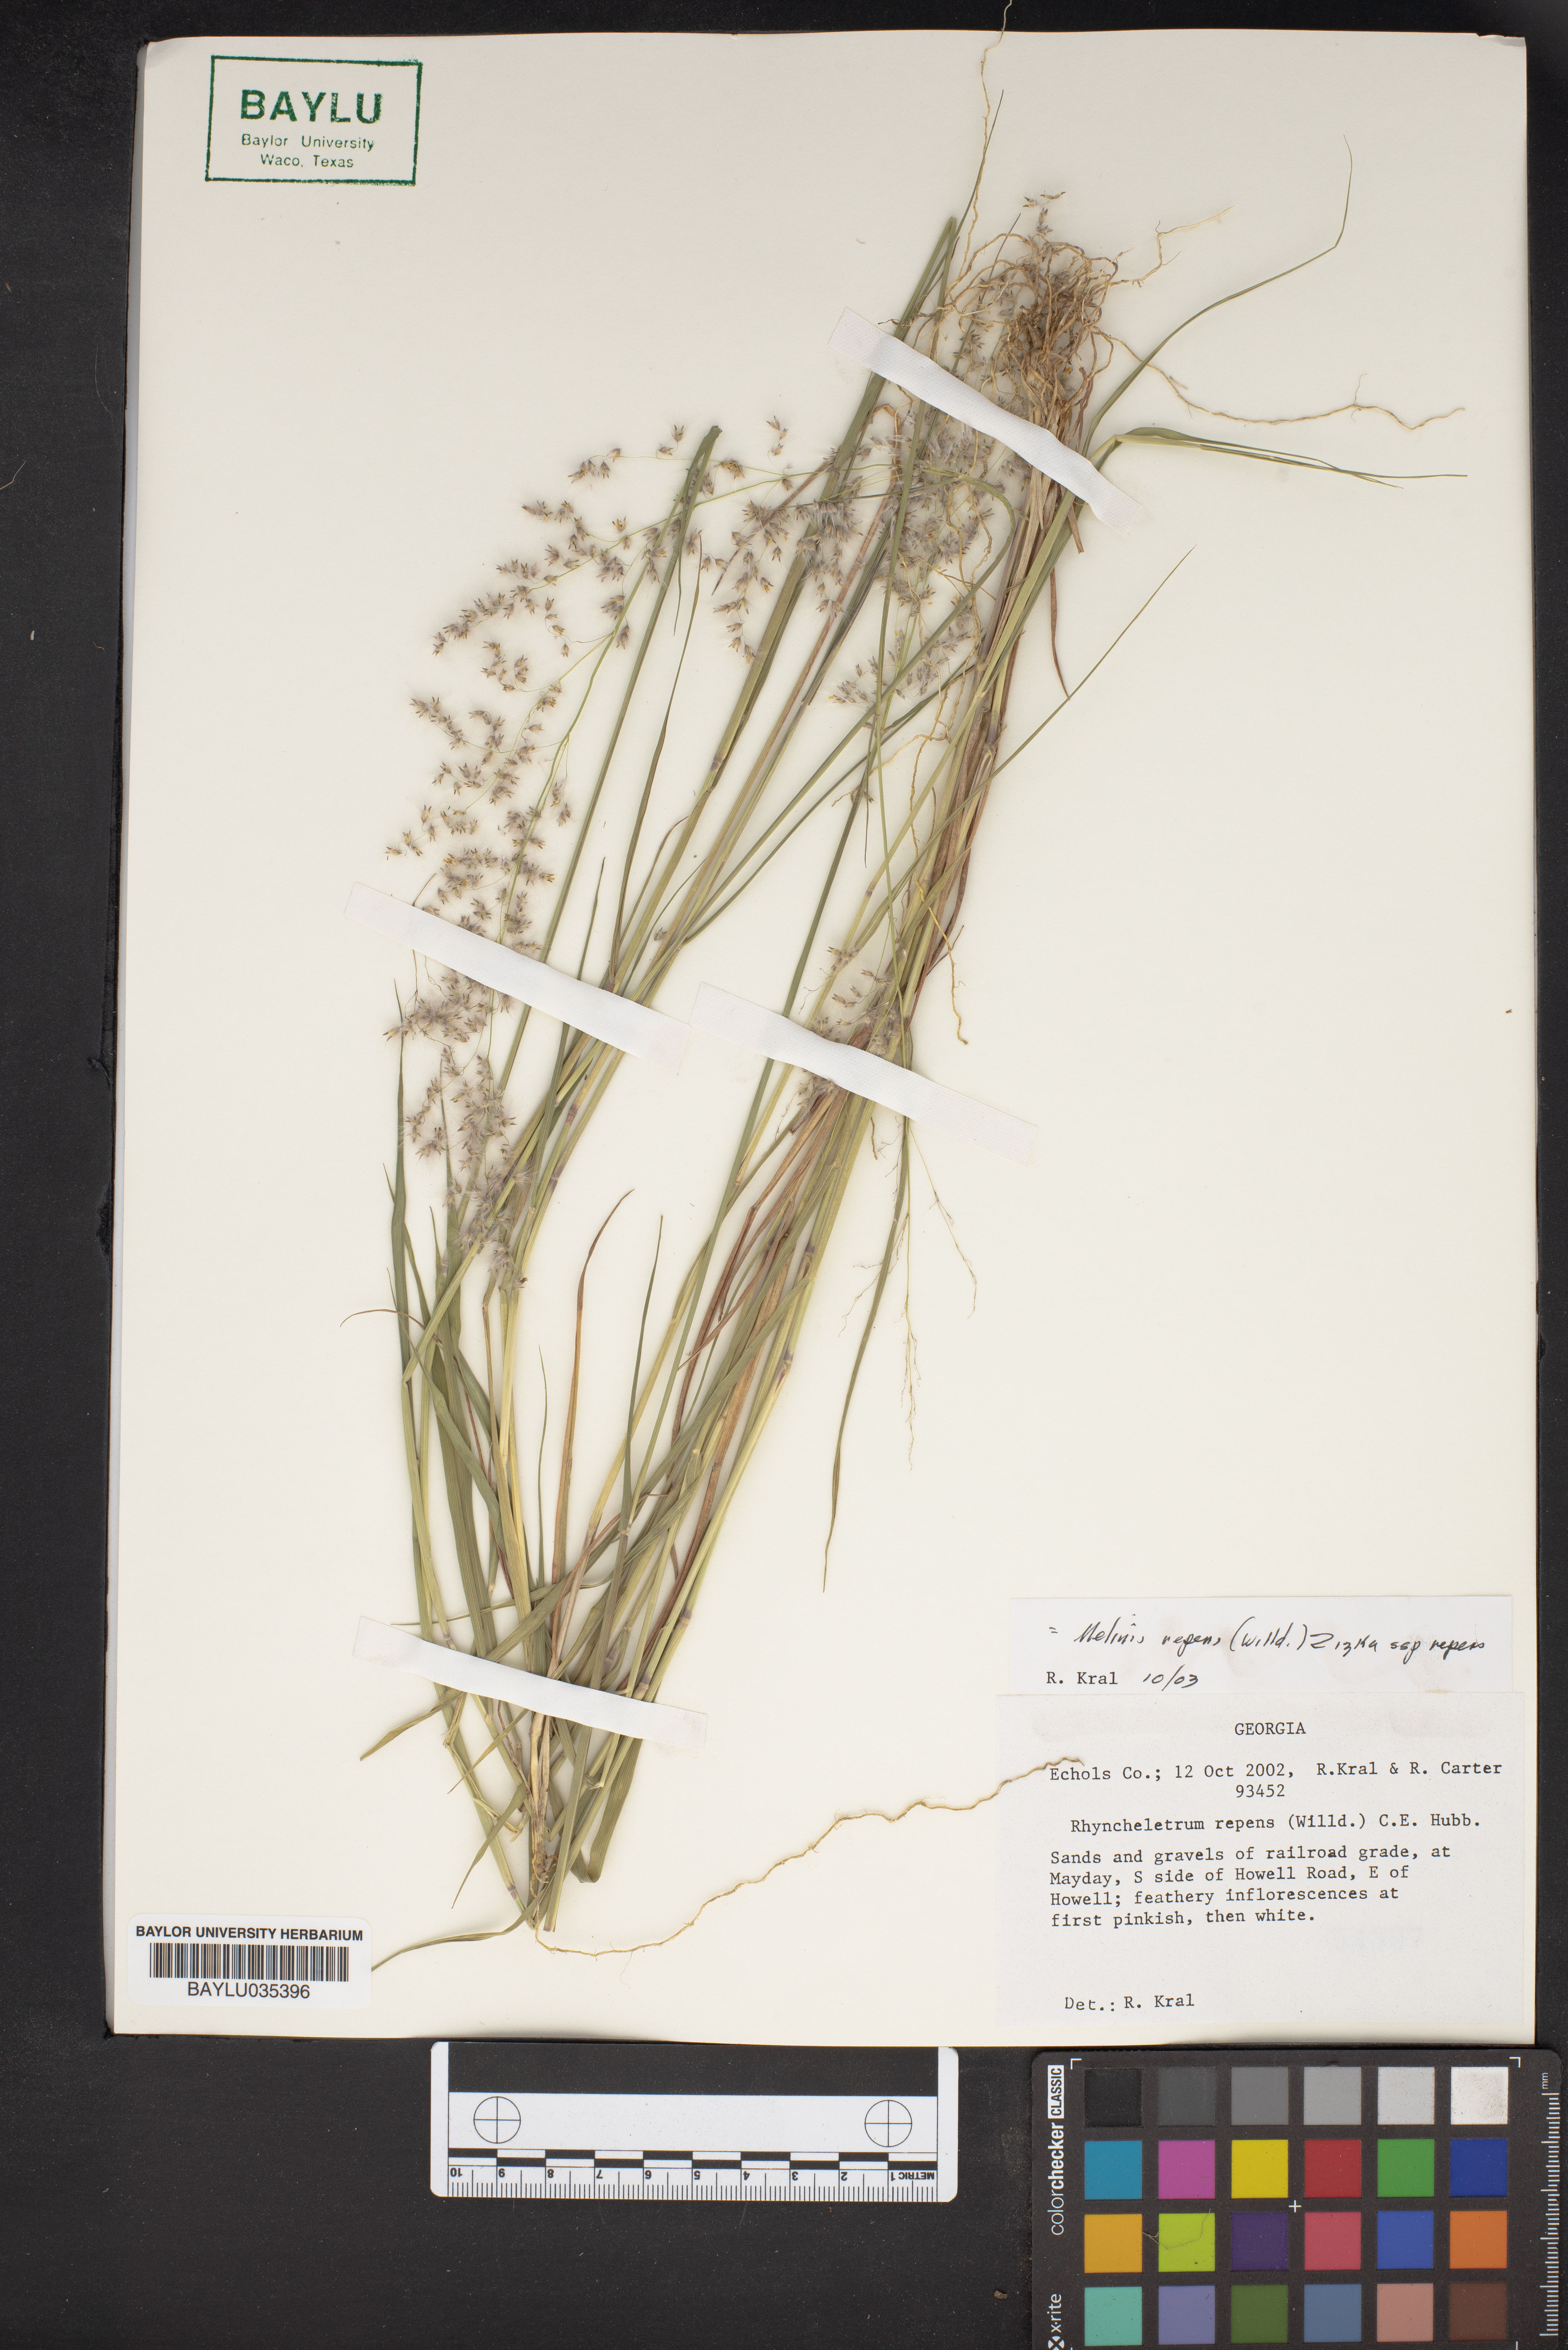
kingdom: Plantae
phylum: Tracheophyta
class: Liliopsida
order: Poales
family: Poaceae
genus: Rhynchelytrum
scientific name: Rhynchelytrum
